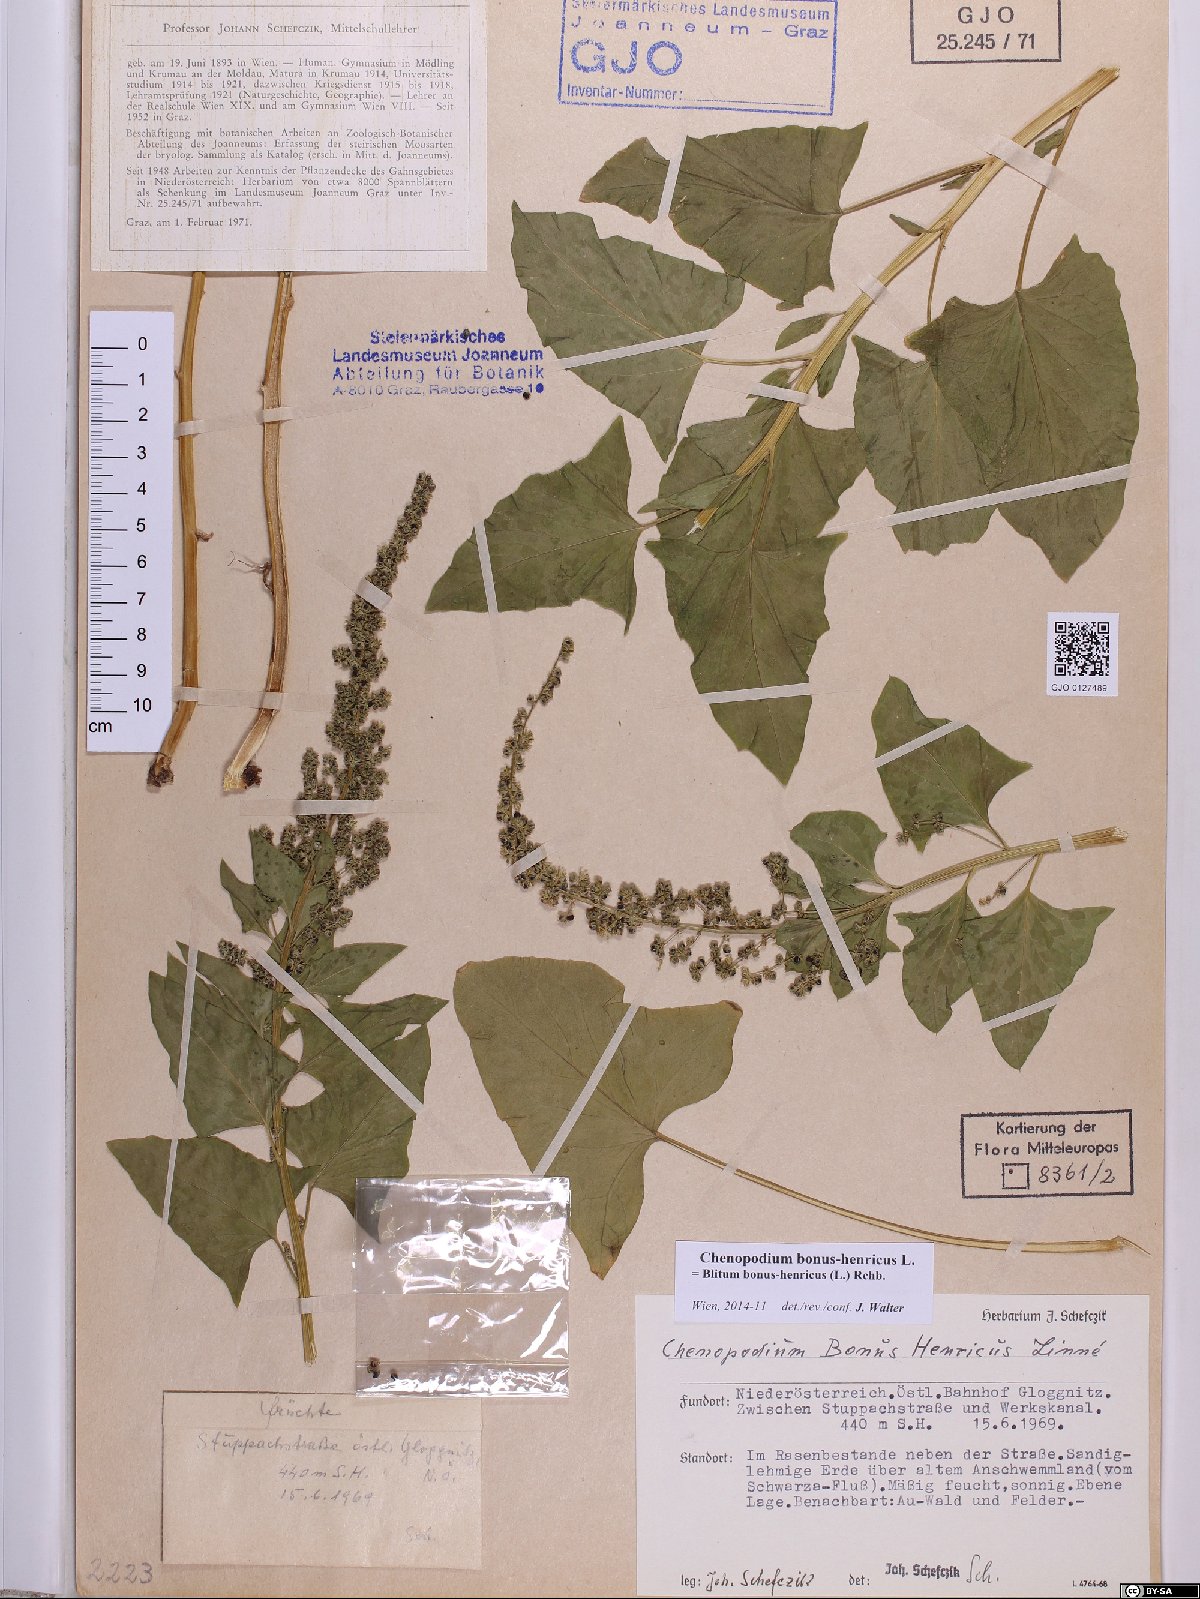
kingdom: Plantae
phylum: Tracheophyta
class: Magnoliopsida
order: Caryophyllales
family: Amaranthaceae
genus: Blitum
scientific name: Blitum bonus-henricus
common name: Good king henry
